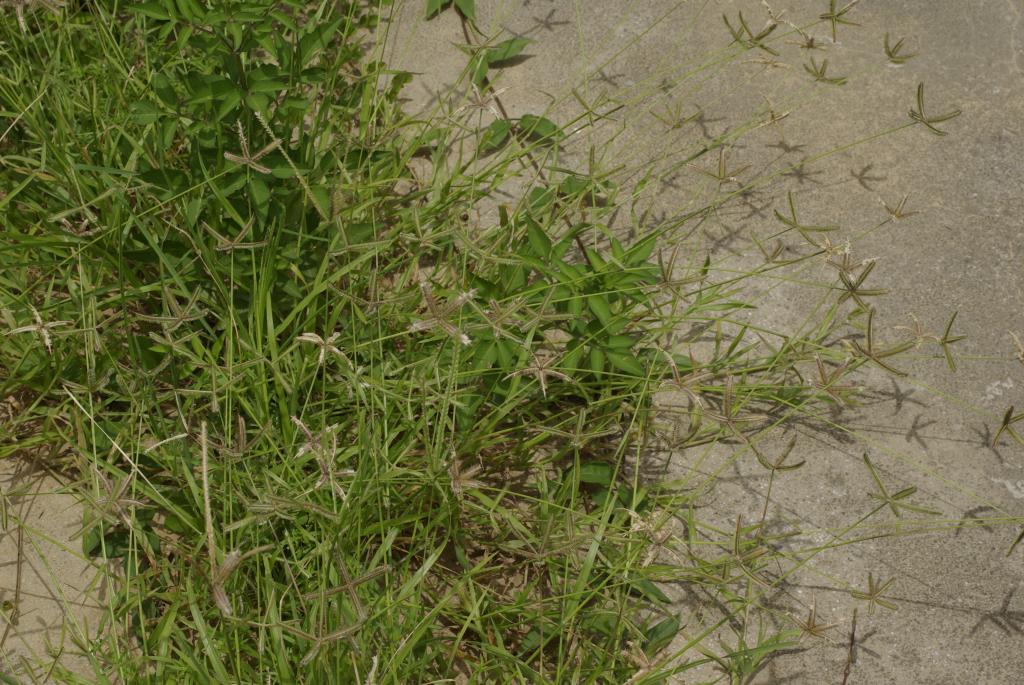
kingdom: Plantae
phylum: Tracheophyta
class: Liliopsida
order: Poales
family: Poaceae
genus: Dactyloctenium
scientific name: Dactyloctenium aegyptium
